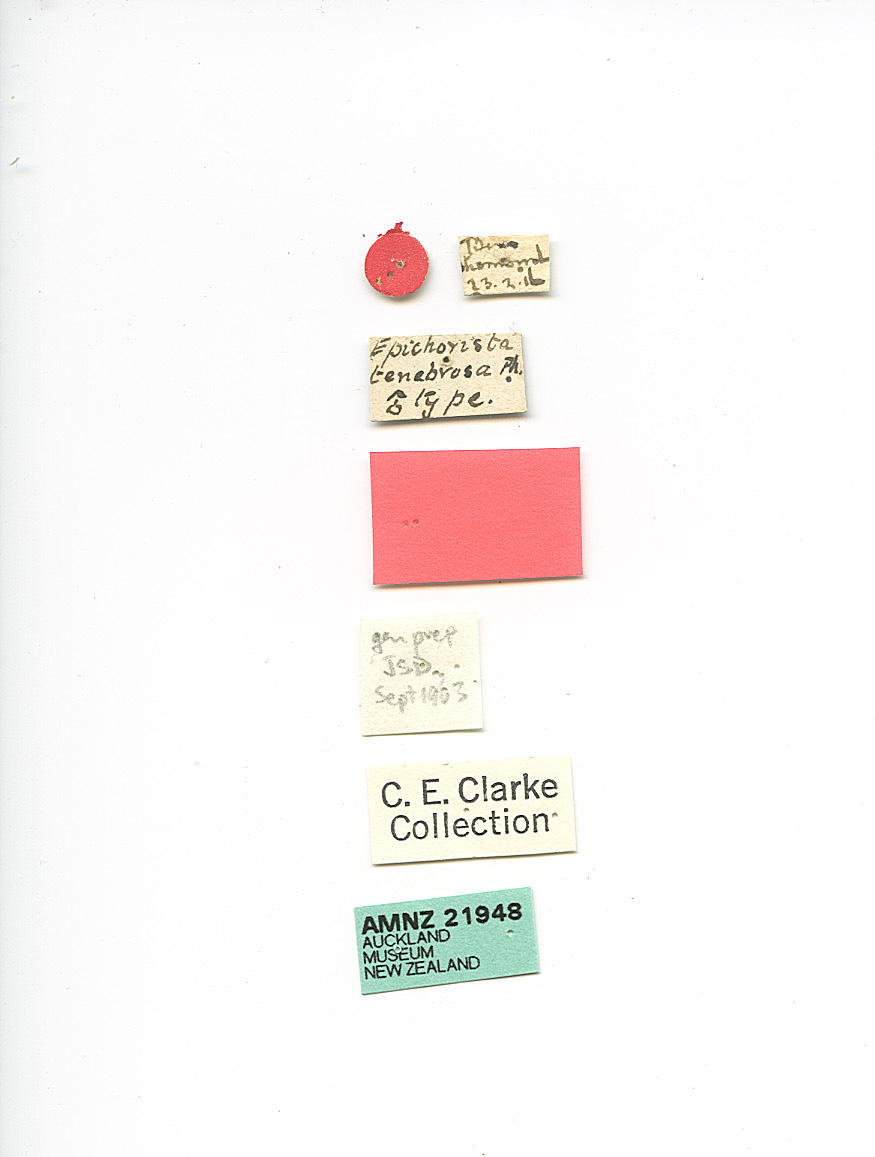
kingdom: Animalia
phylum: Arthropoda
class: Insecta
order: Lepidoptera
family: Tortricidae
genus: Epichorista
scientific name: Epichorista tenebrosa
